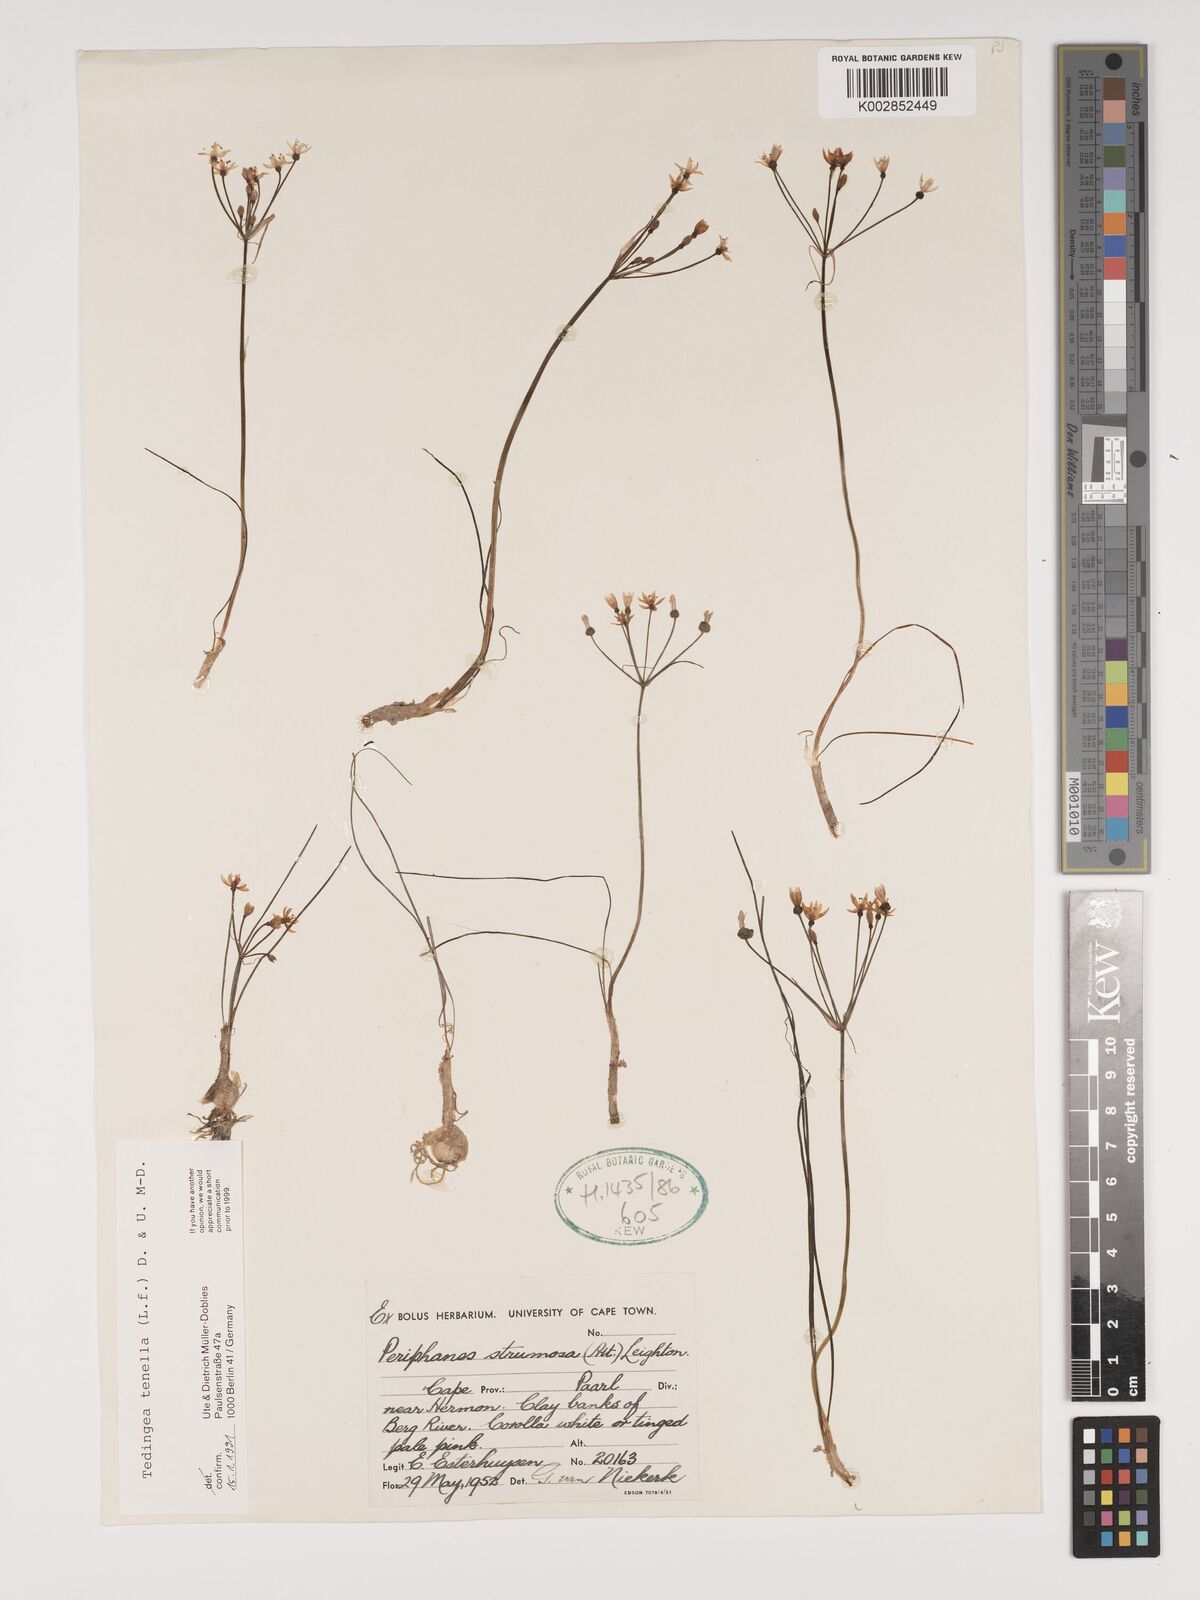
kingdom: Plantae
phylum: Tracheophyta
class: Liliopsida
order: Asparagales
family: Amaryllidaceae
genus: Strumaria
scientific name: Strumaria tenella
